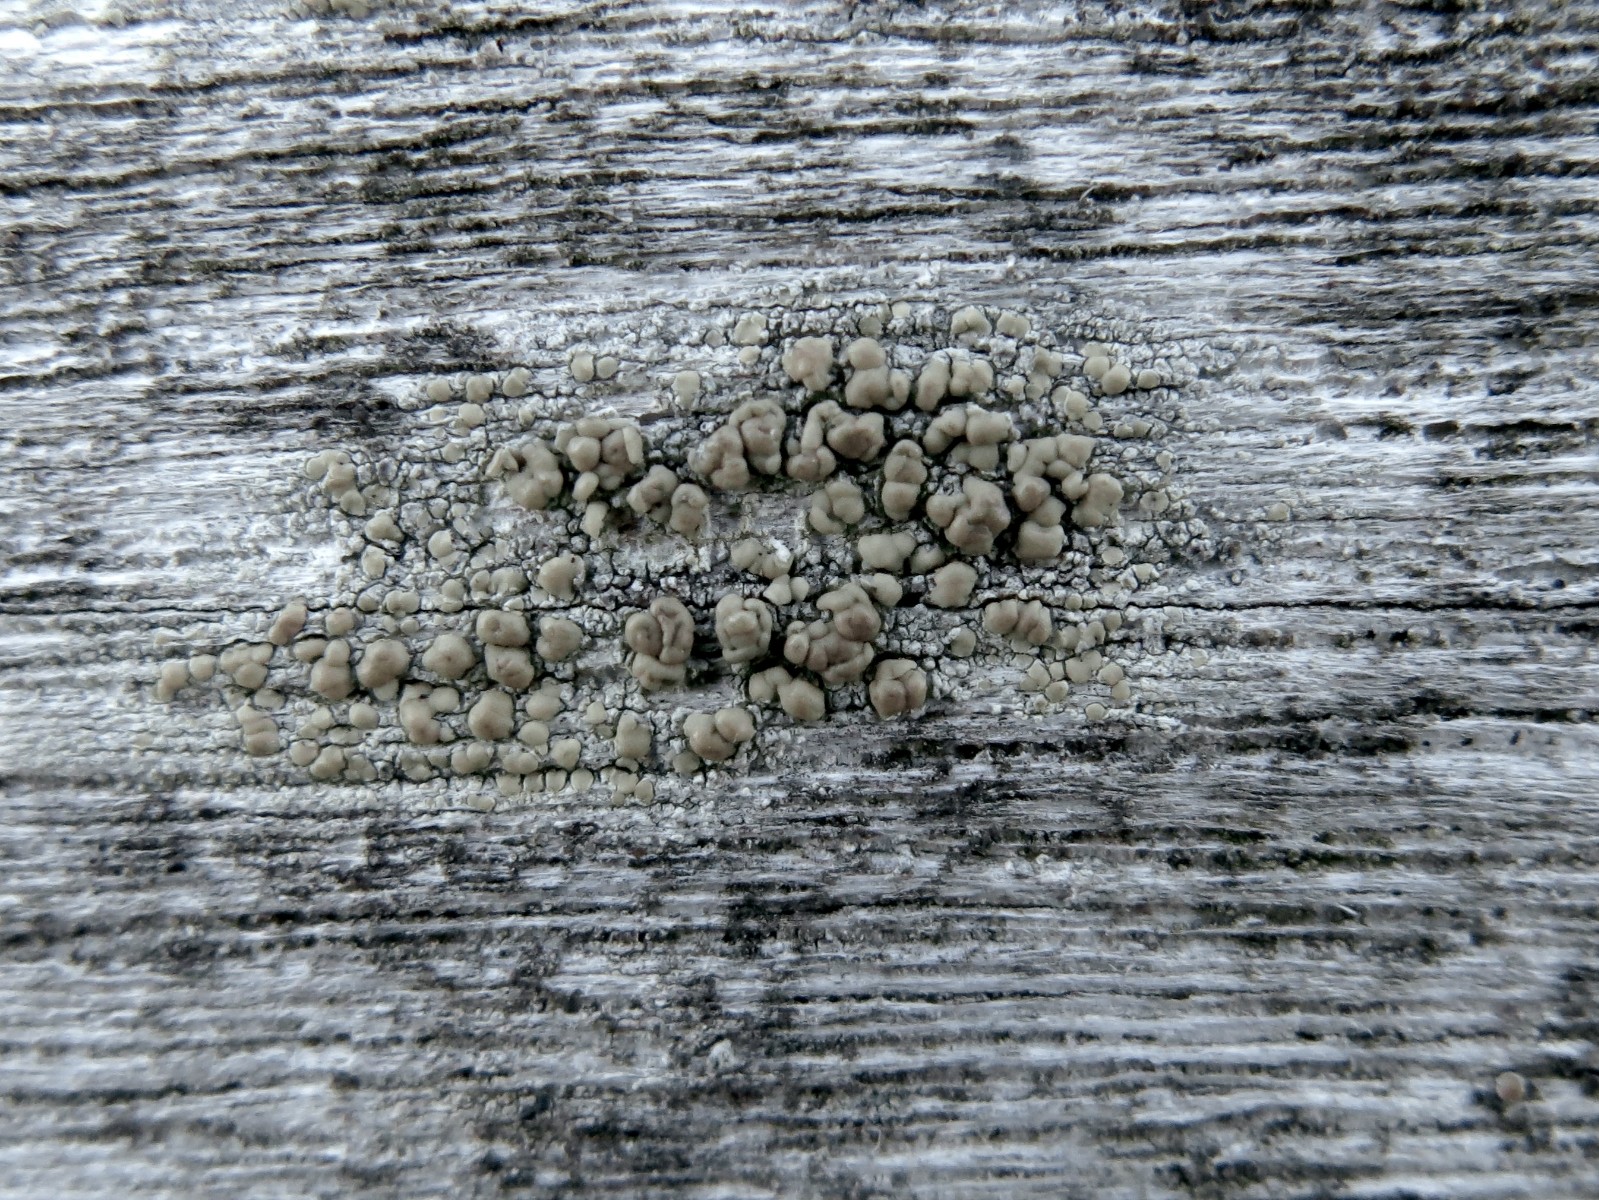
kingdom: Fungi
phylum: Ascomycota
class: Lecanoromycetes
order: Lecanorales
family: Lecanoraceae
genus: Lecanora
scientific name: Lecanora symmicta
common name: kvist-kantskivelav
